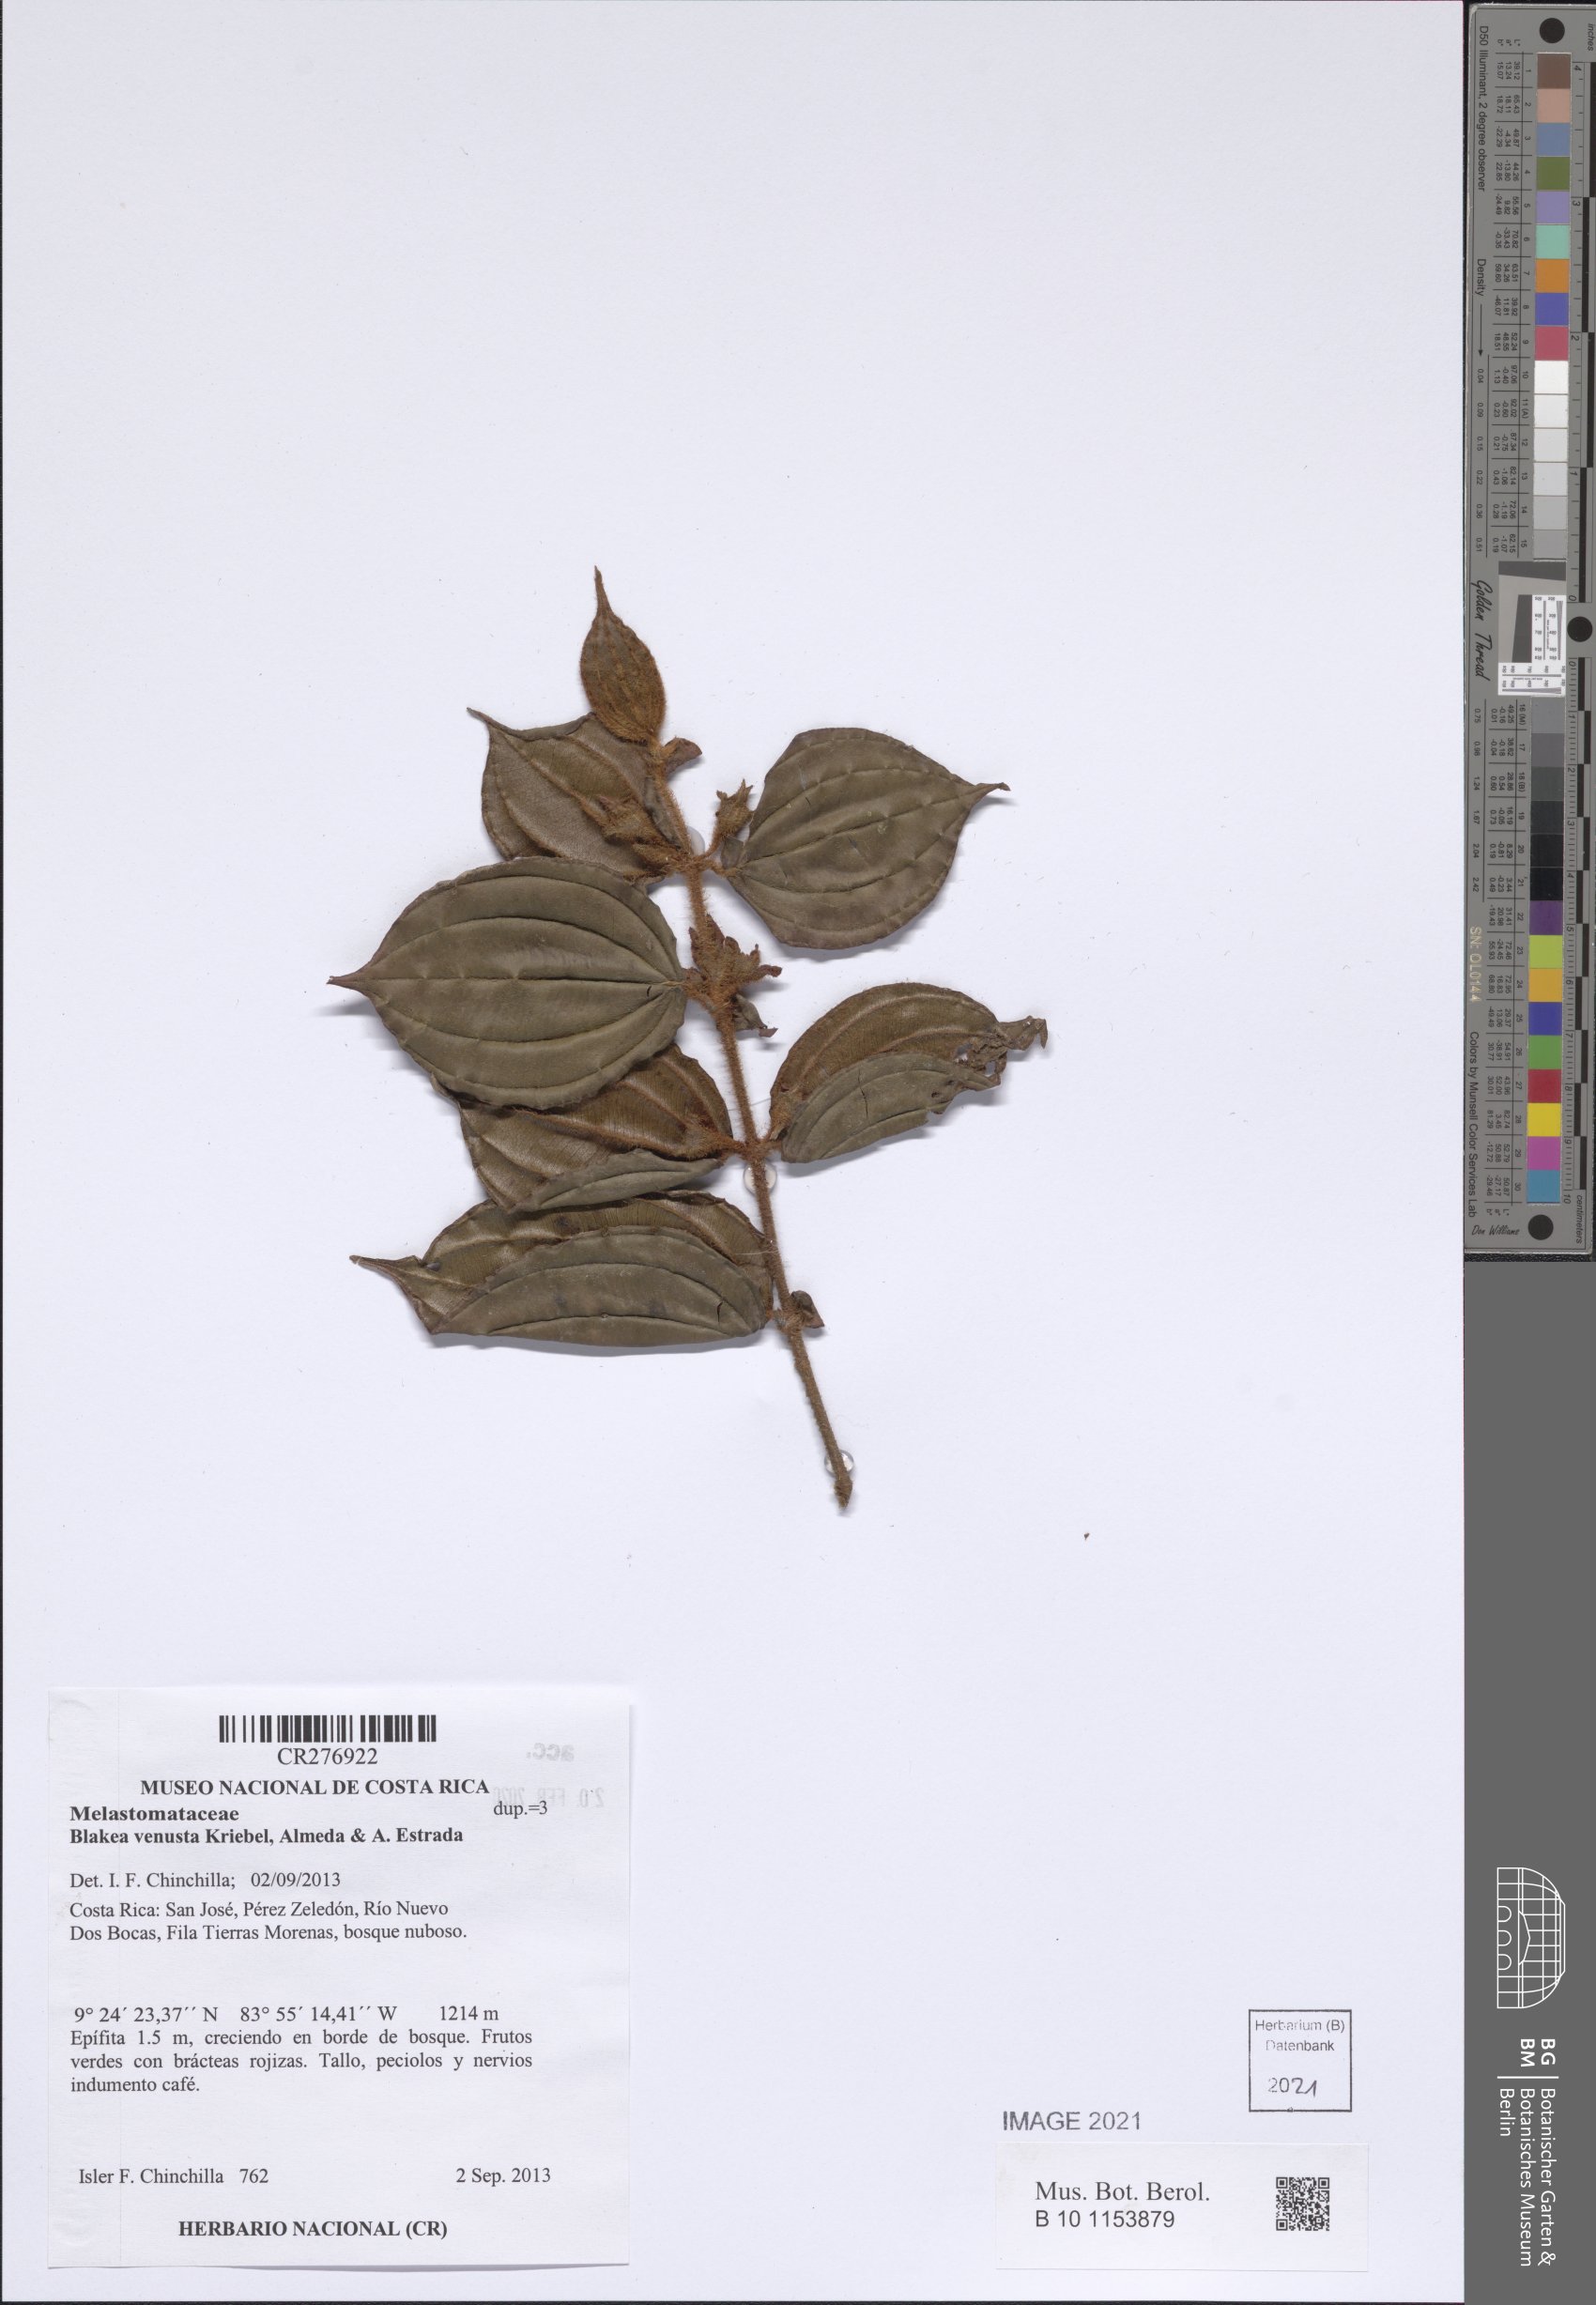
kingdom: Plantae
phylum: Tracheophyta
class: Magnoliopsida
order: Myrtales
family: Melastomataceae
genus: Blakea
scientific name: Blakea venusta
